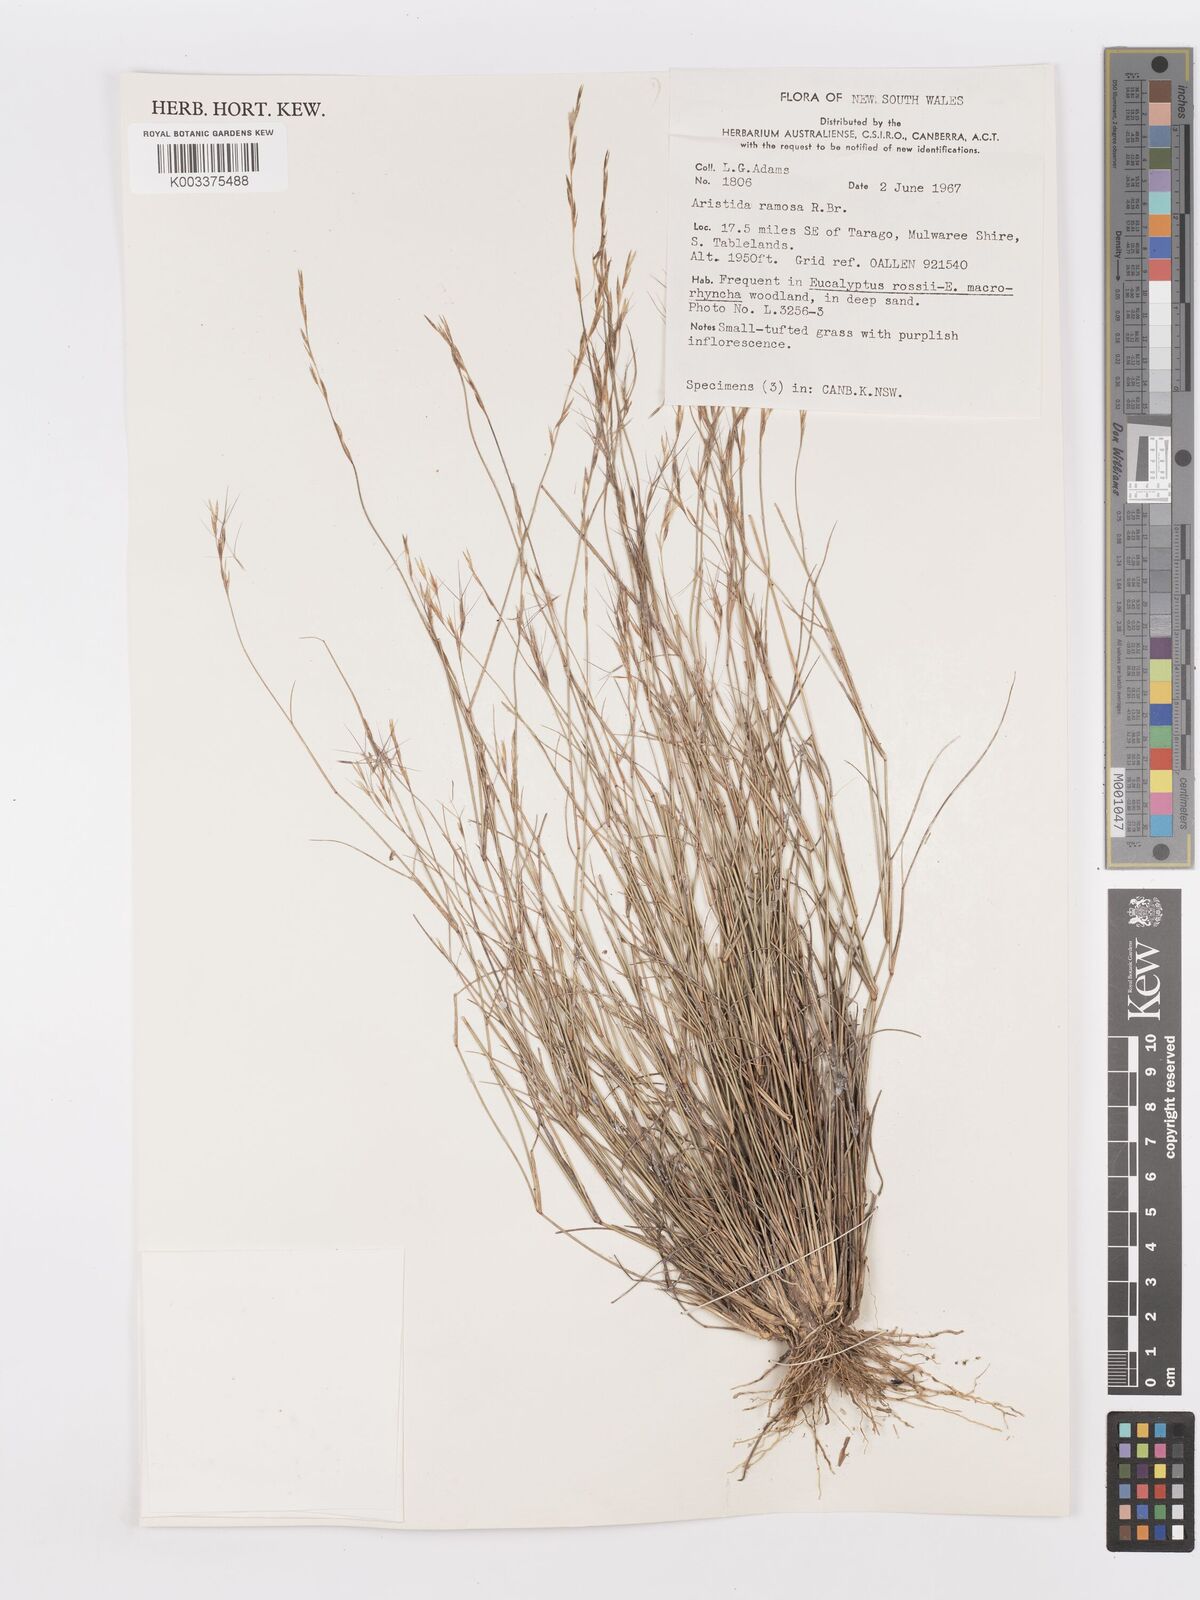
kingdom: Plantae
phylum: Tracheophyta
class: Liliopsida
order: Poales
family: Poaceae
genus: Aristida
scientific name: Aristida ramosa
